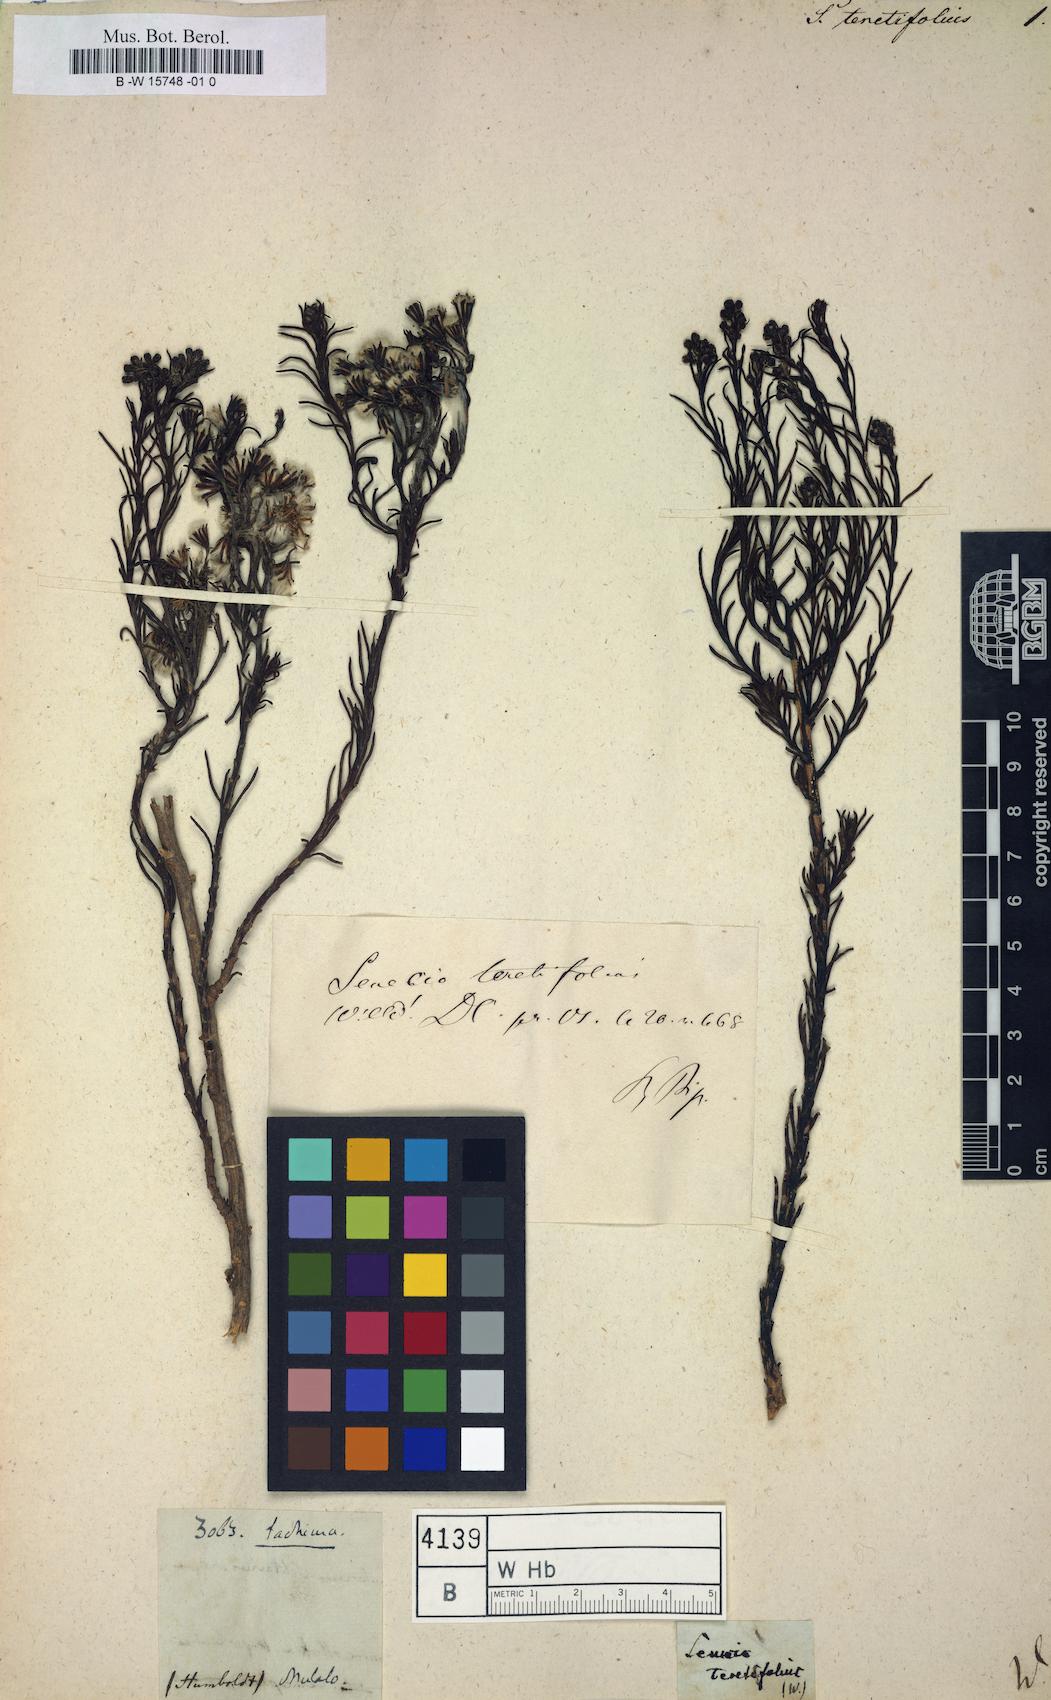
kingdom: Plantae
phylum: Tracheophyta
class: Magnoliopsida
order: Asterales
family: Asteraceae
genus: Senecio
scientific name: Senecio teretifolius
